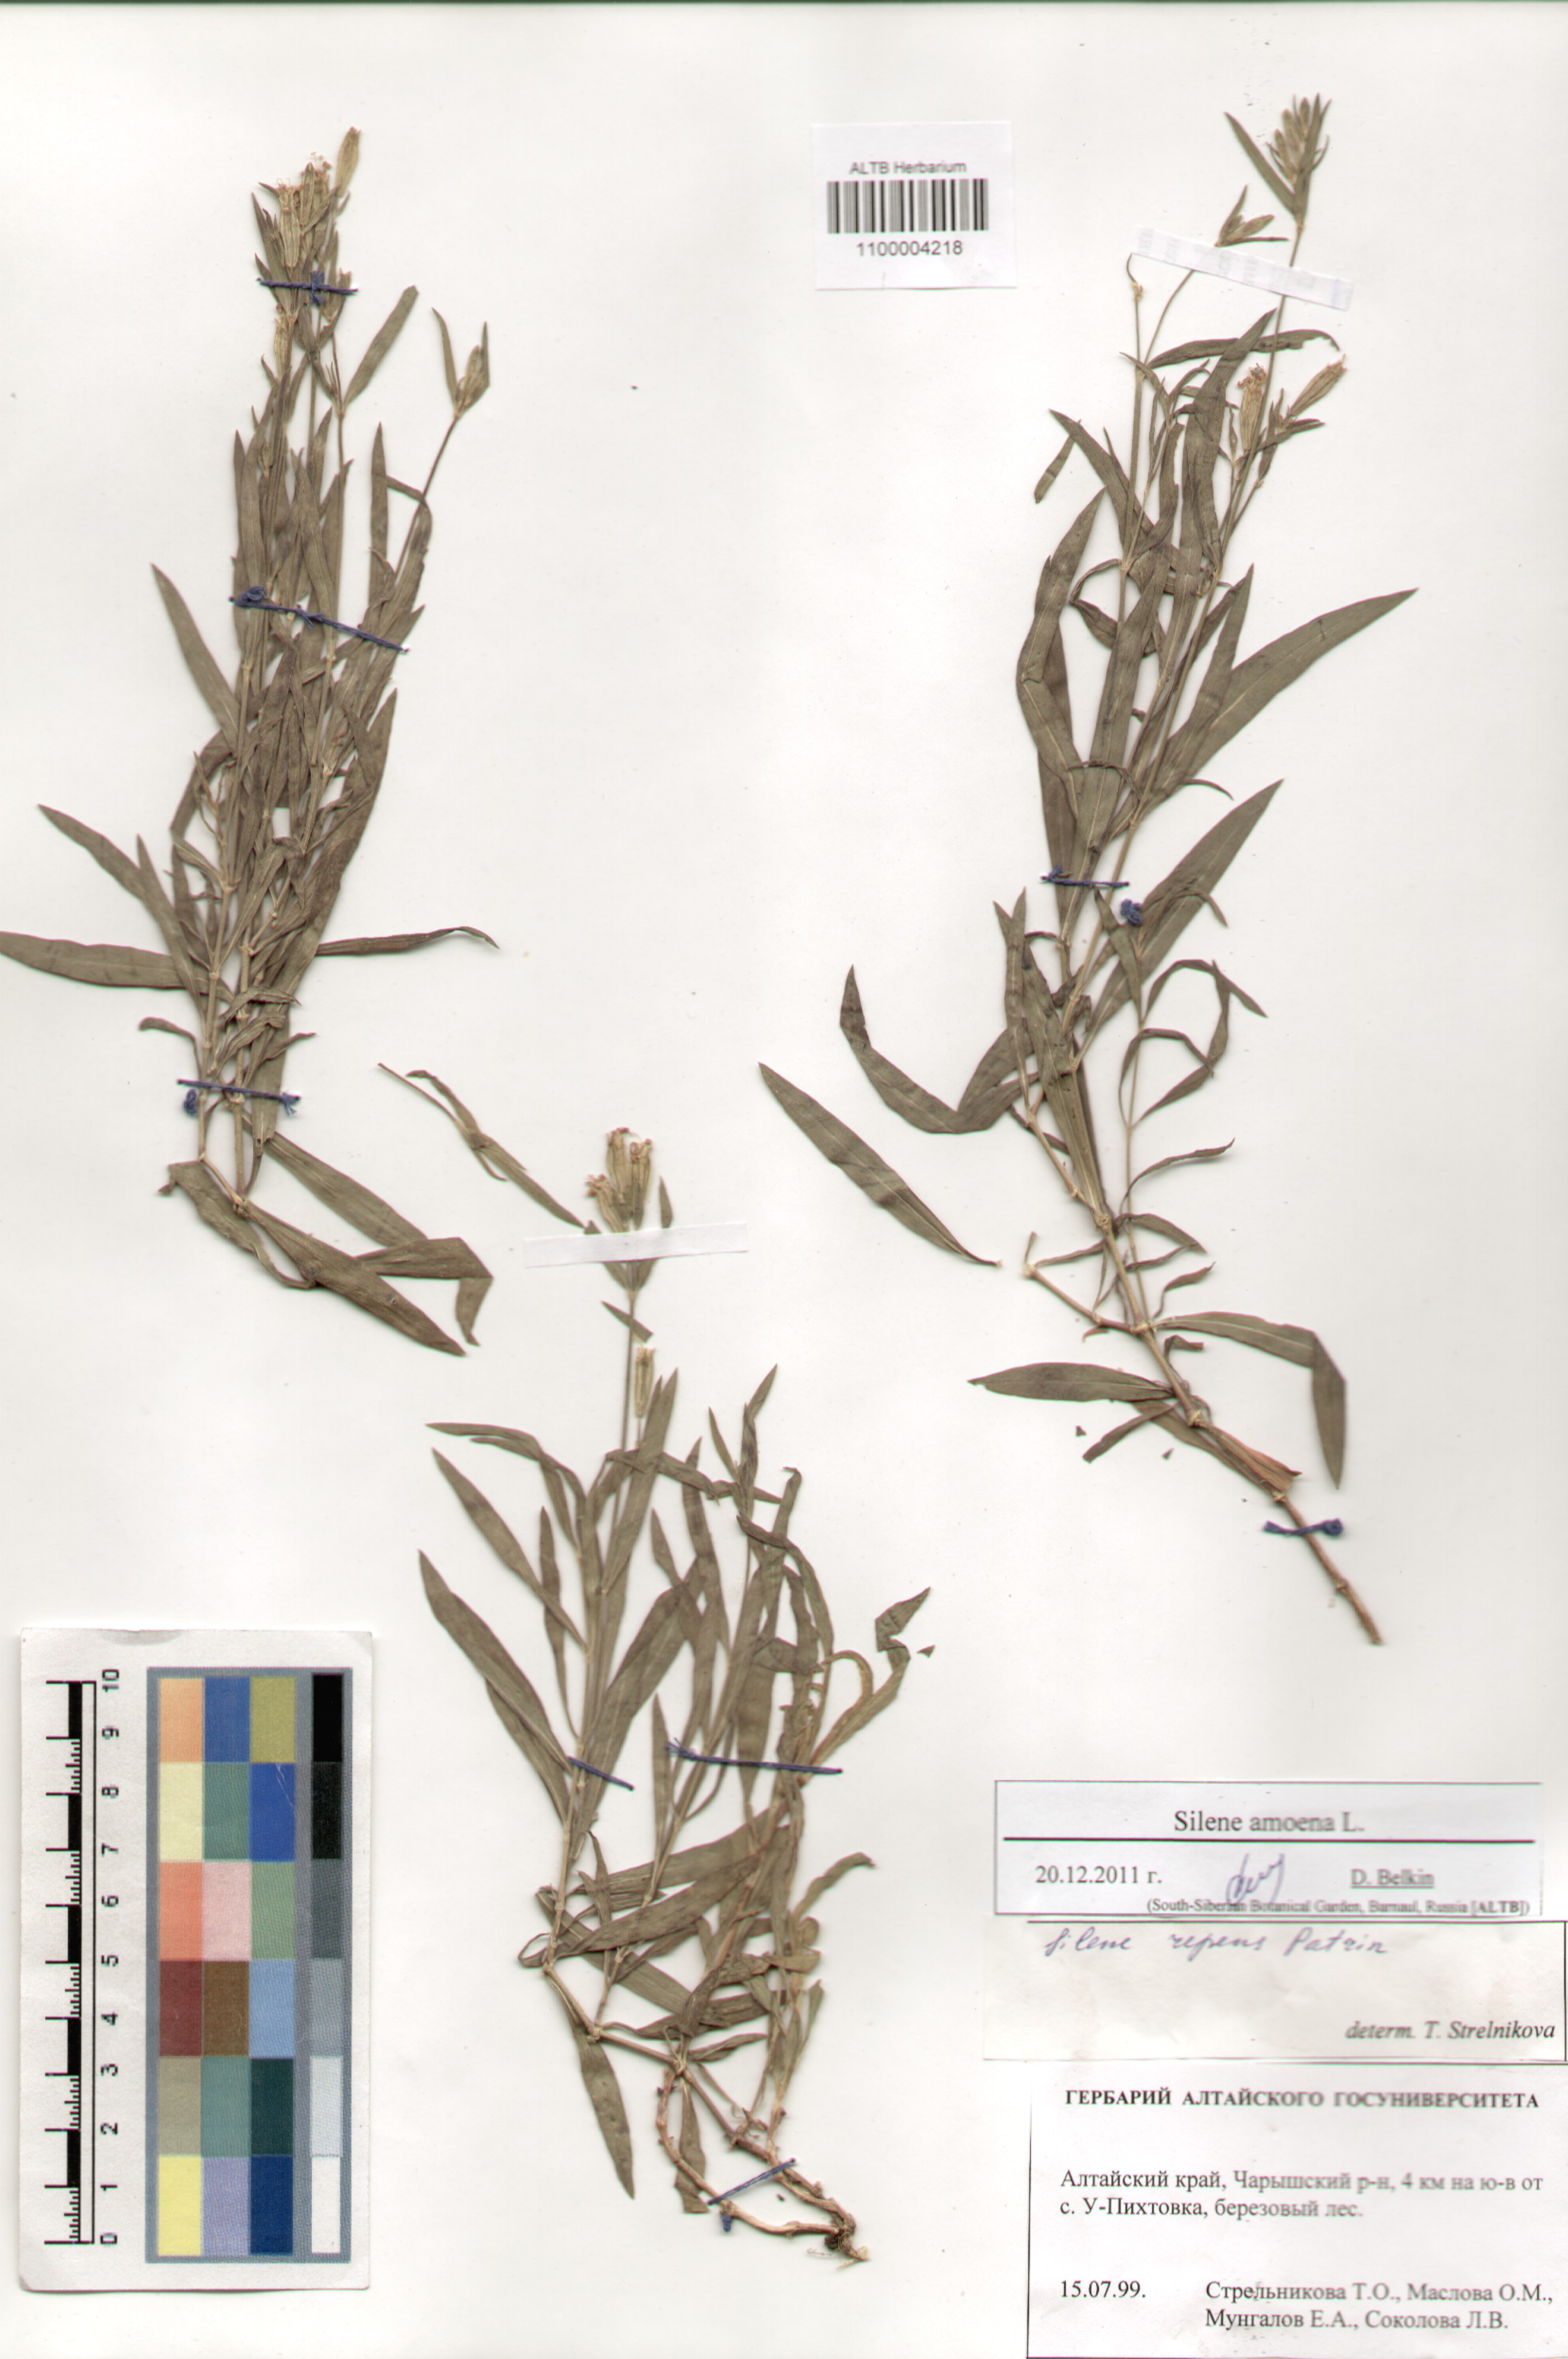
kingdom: Plantae
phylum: Tracheophyta
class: Magnoliopsida
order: Caryophyllales
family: Caryophyllaceae
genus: Silene
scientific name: Silene amoena
